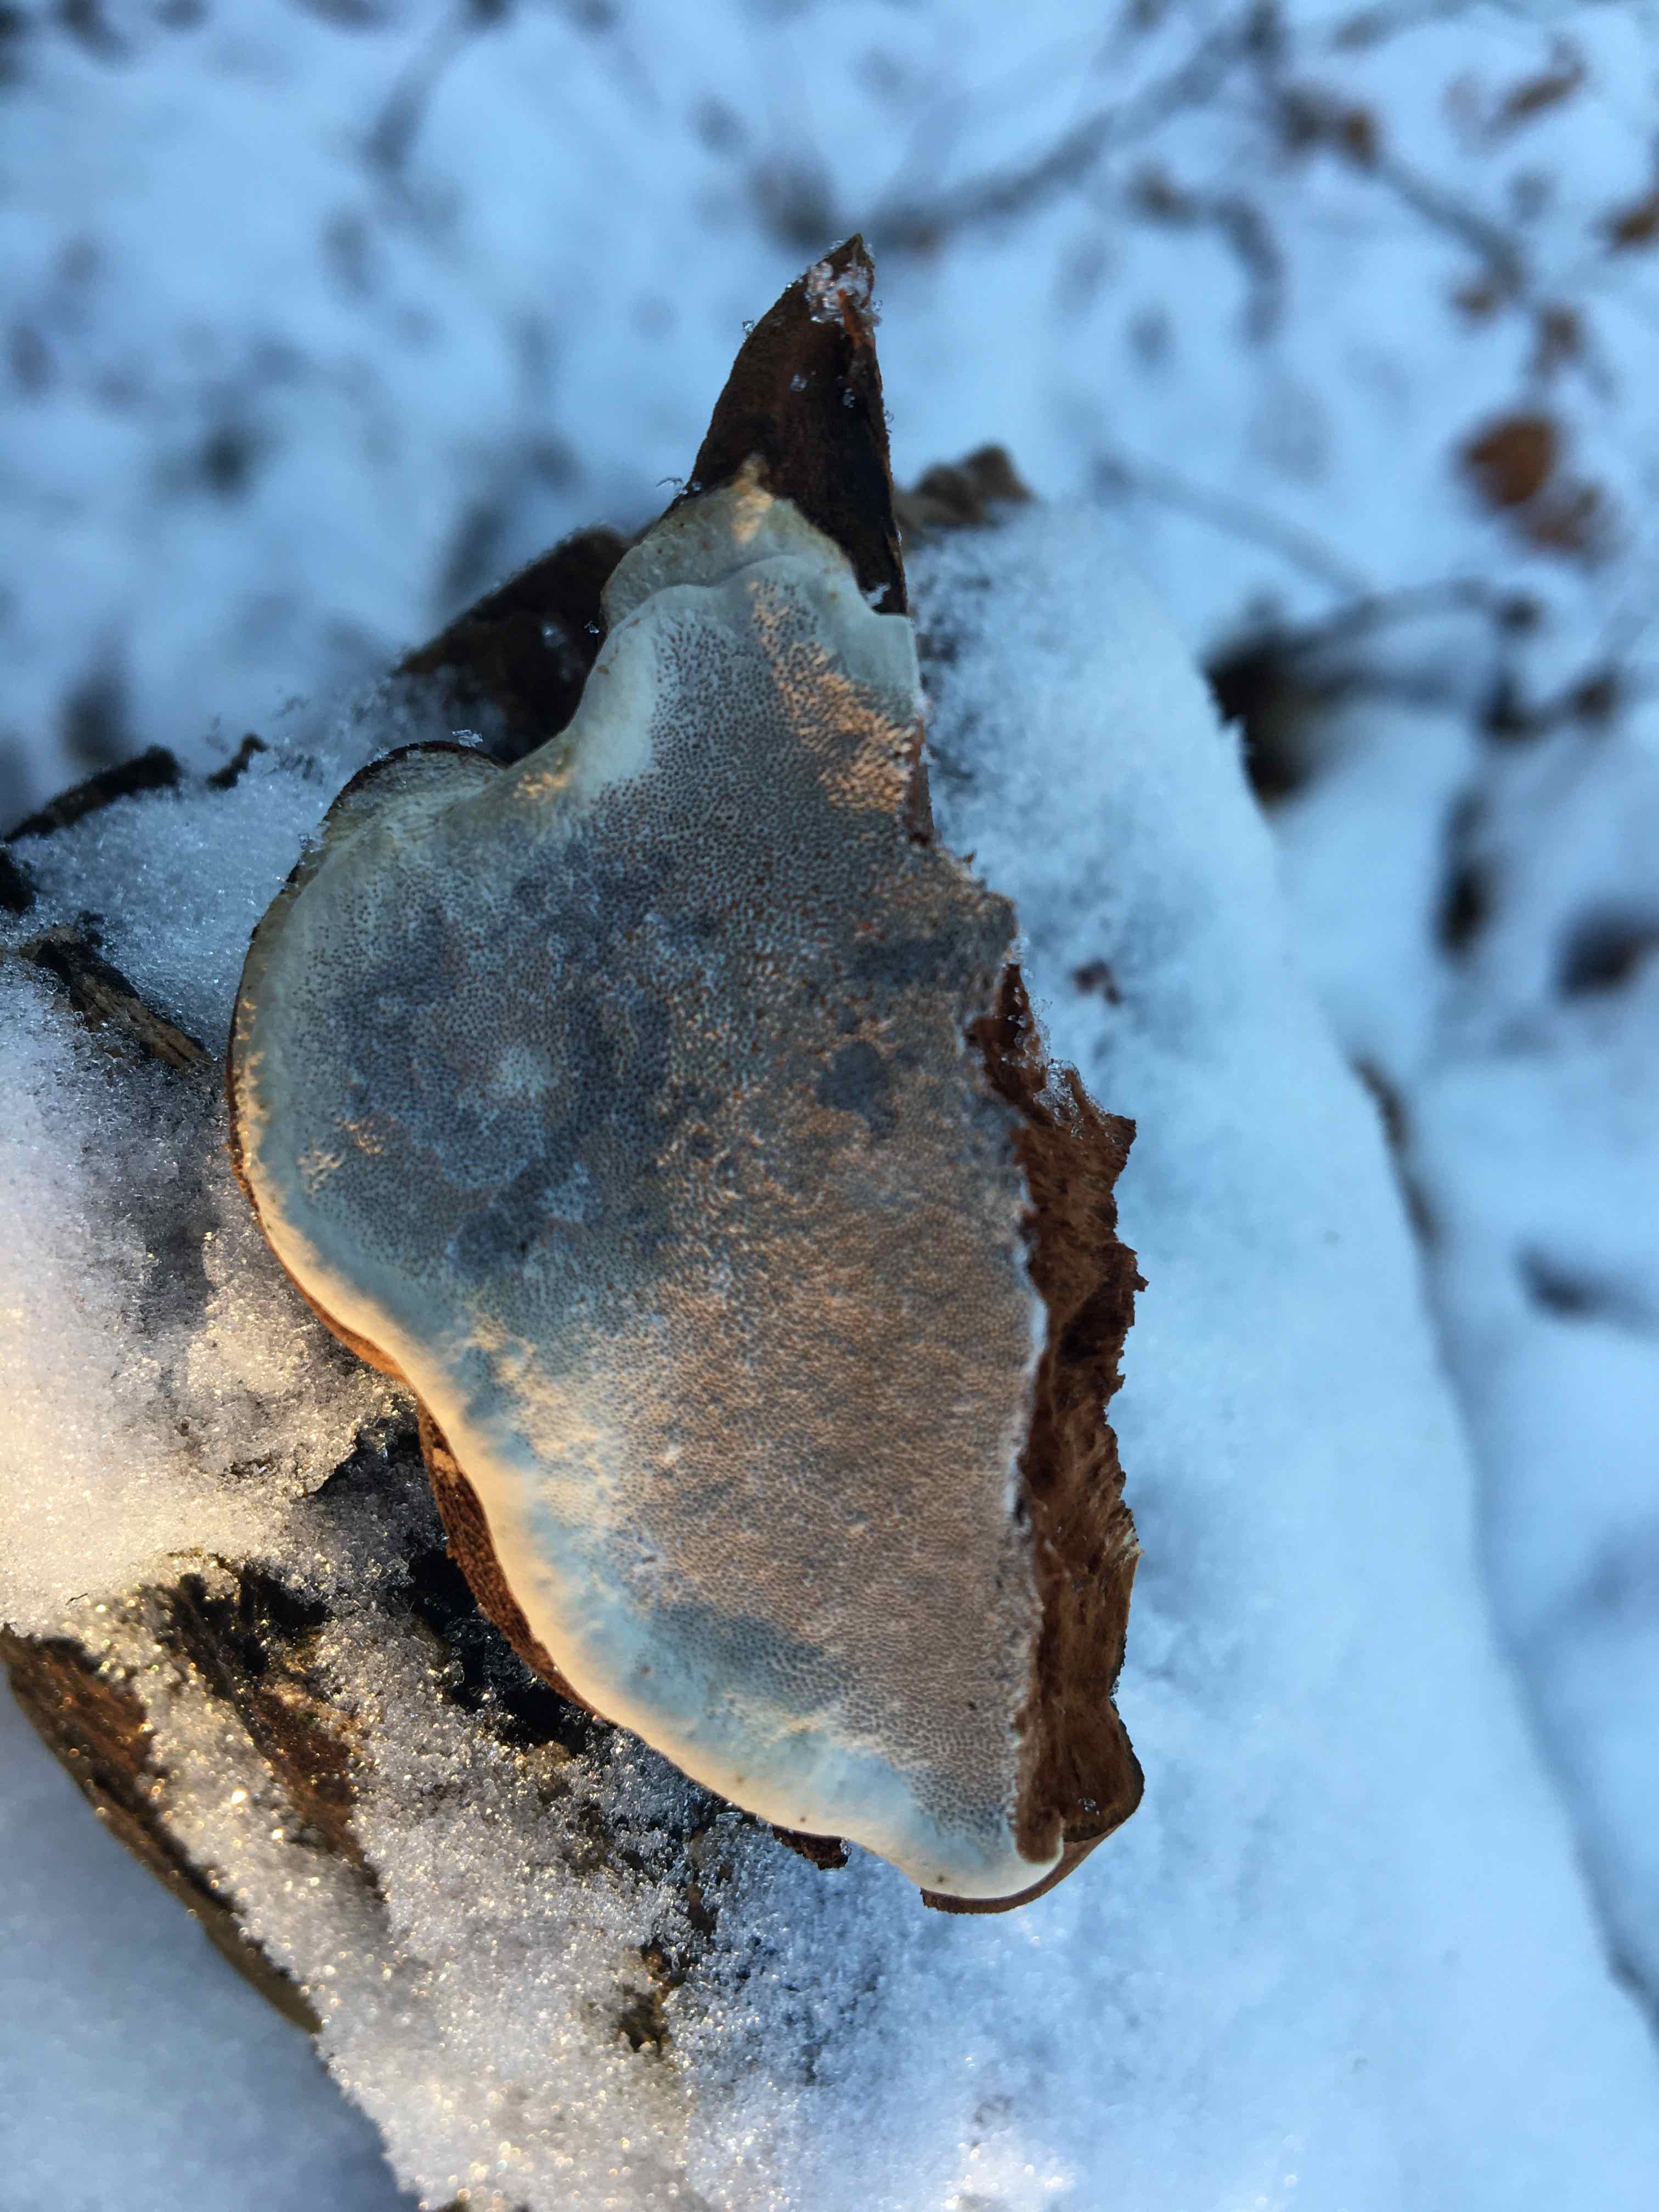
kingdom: Fungi
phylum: Basidiomycota
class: Agaricomycetes
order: Polyporales
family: Polyporaceae
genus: Ganoderma
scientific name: Ganoderma applanatum
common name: flad lakporesvamp
